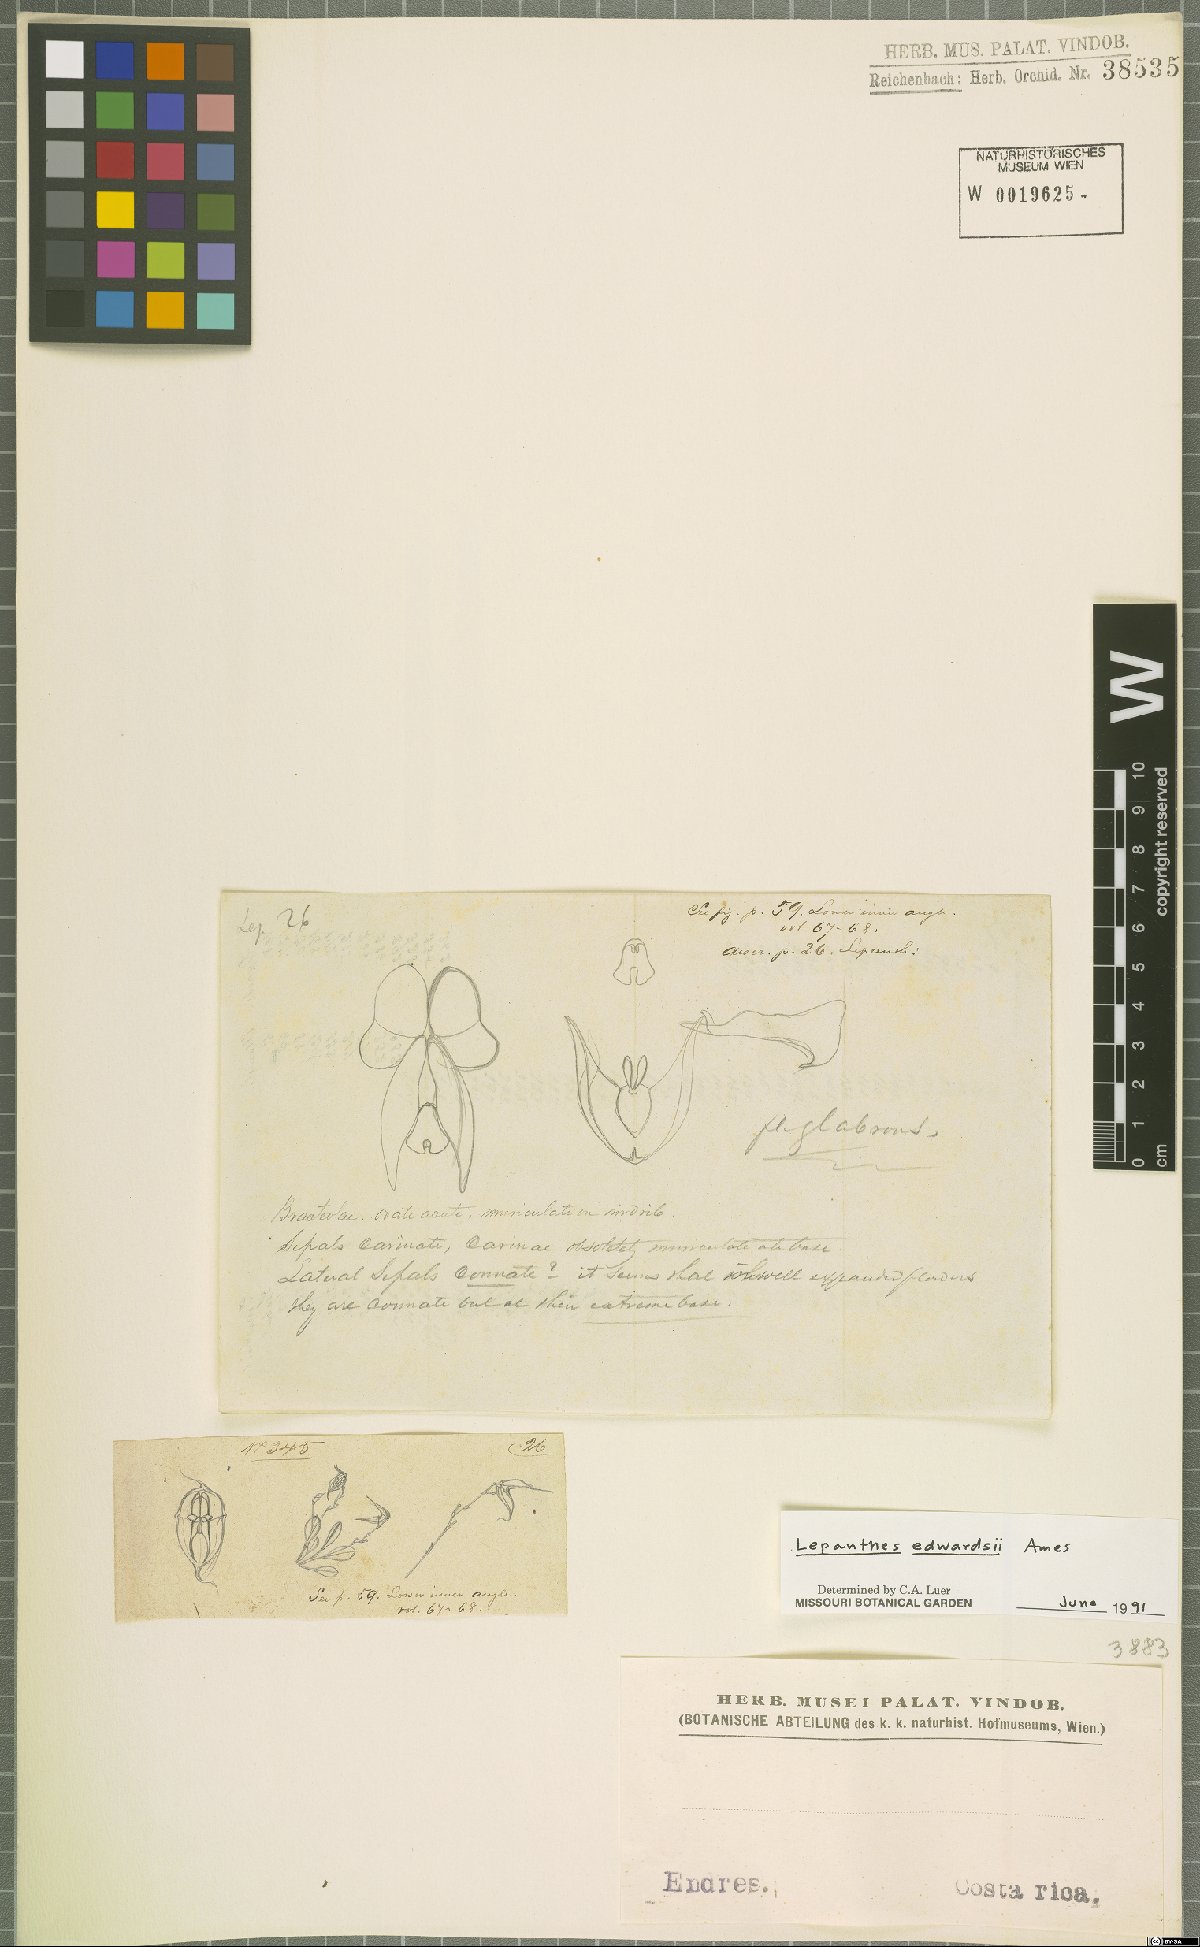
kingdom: Plantae
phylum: Tracheophyta
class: Liliopsida
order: Asparagales
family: Orchidaceae
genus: Lepanthes
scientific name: Lepanthes edwardsii
